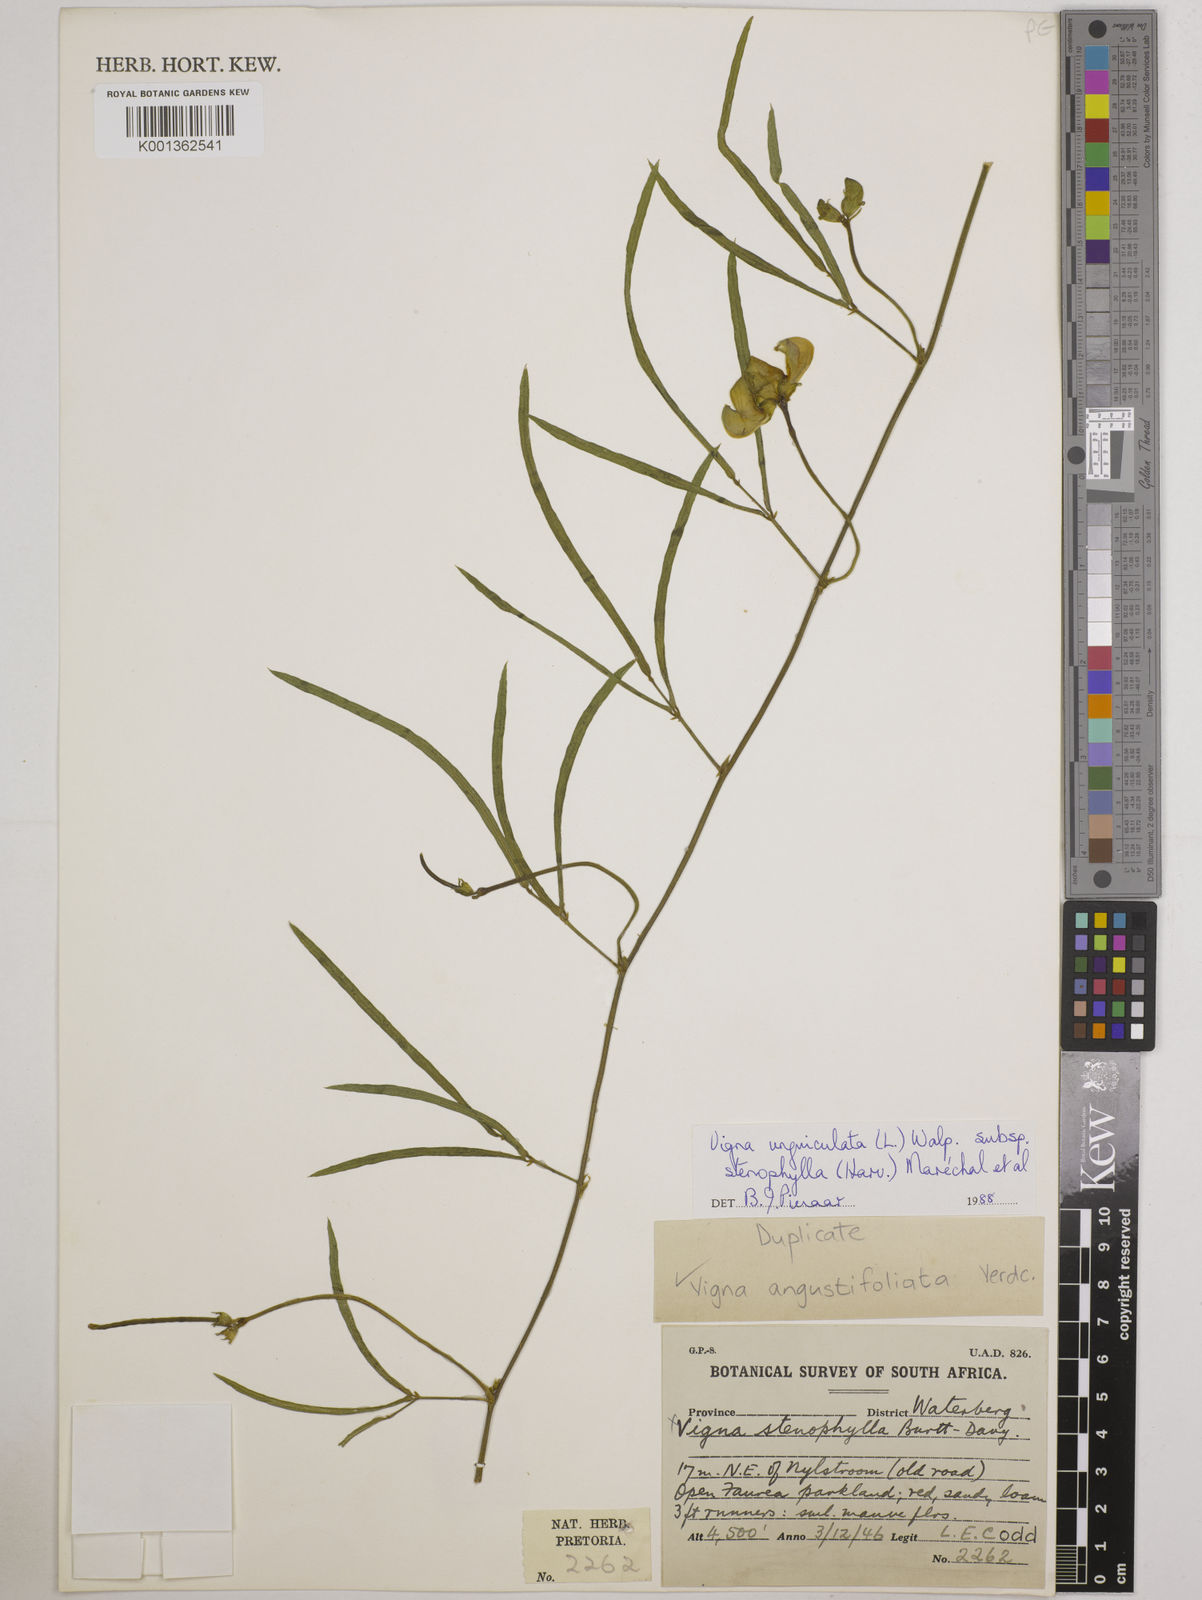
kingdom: Plantae
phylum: Tracheophyta
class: Magnoliopsida
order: Fabales
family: Fabaceae
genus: Vigna
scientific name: Vigna
